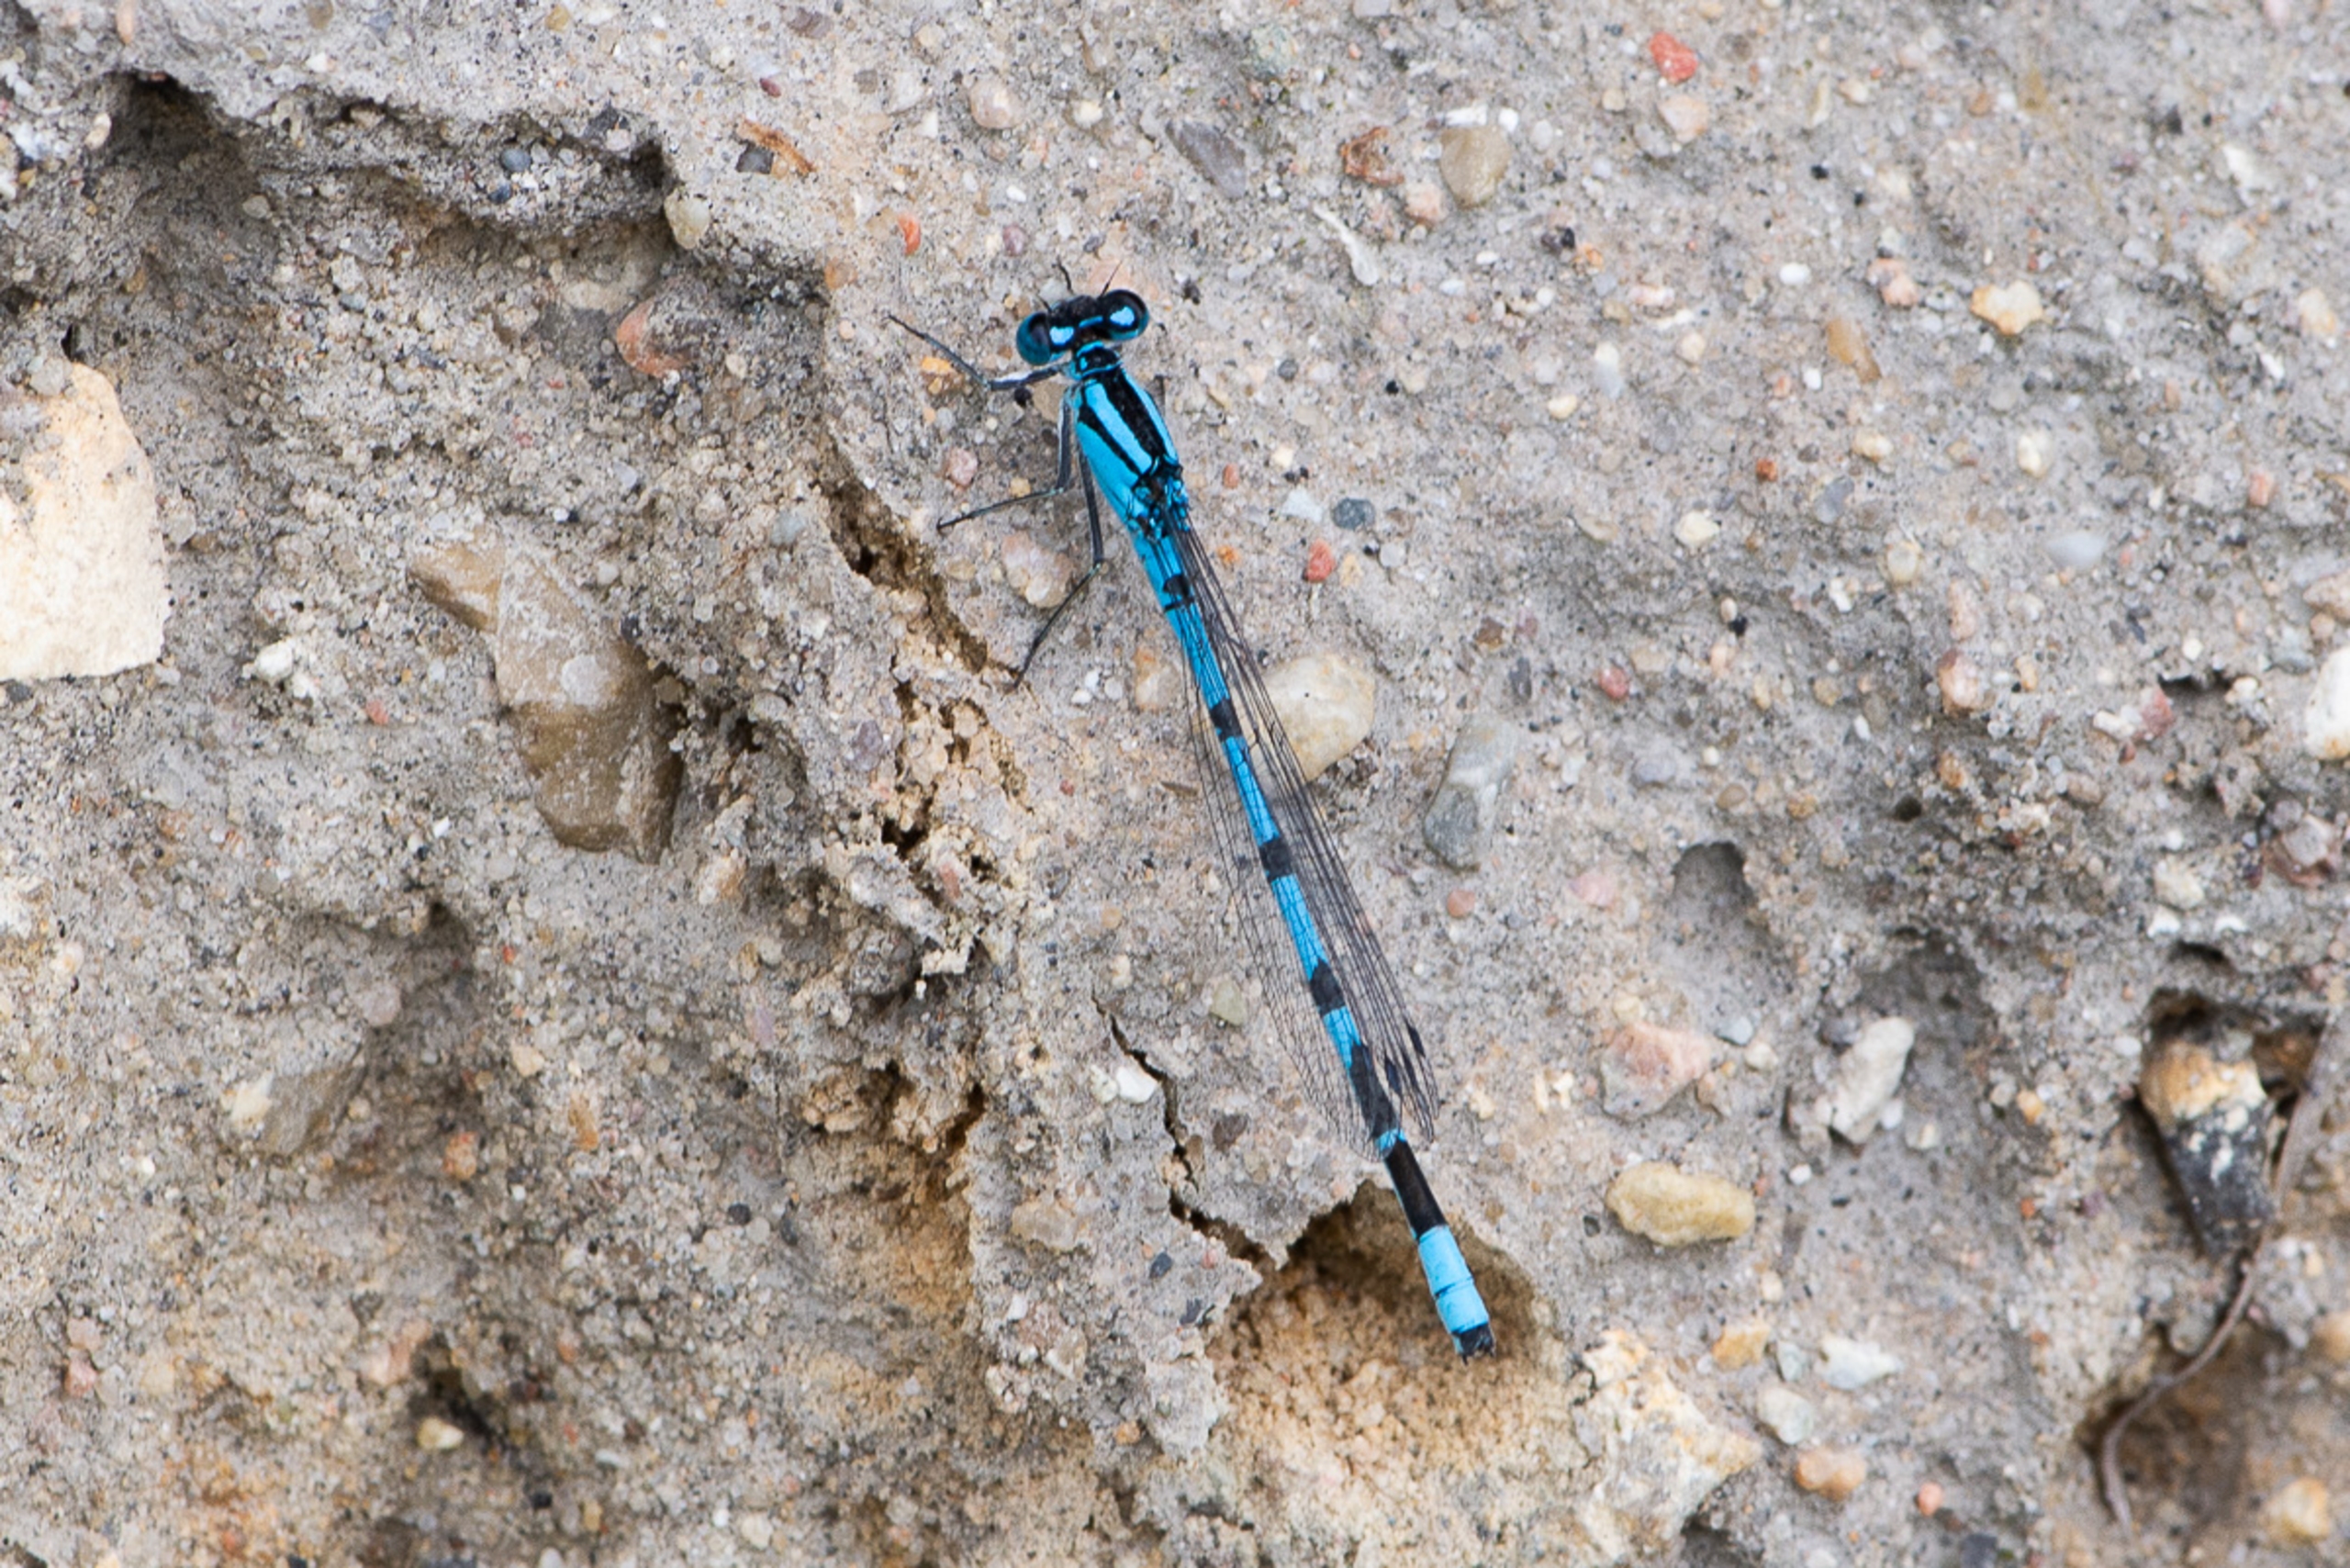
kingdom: Animalia
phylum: Arthropoda
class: Insecta
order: Odonata
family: Coenagrionidae
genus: Enallagma
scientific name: Enallagma cyathigerum
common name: Almindelig vandnymfe
